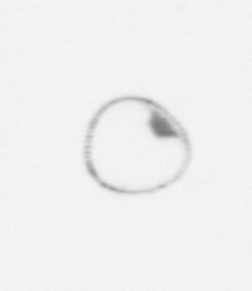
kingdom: Chromista
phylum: Myzozoa
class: Dinophyceae
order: Noctilucales
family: Noctilucaceae
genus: Noctiluca
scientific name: Noctiluca scintillans
